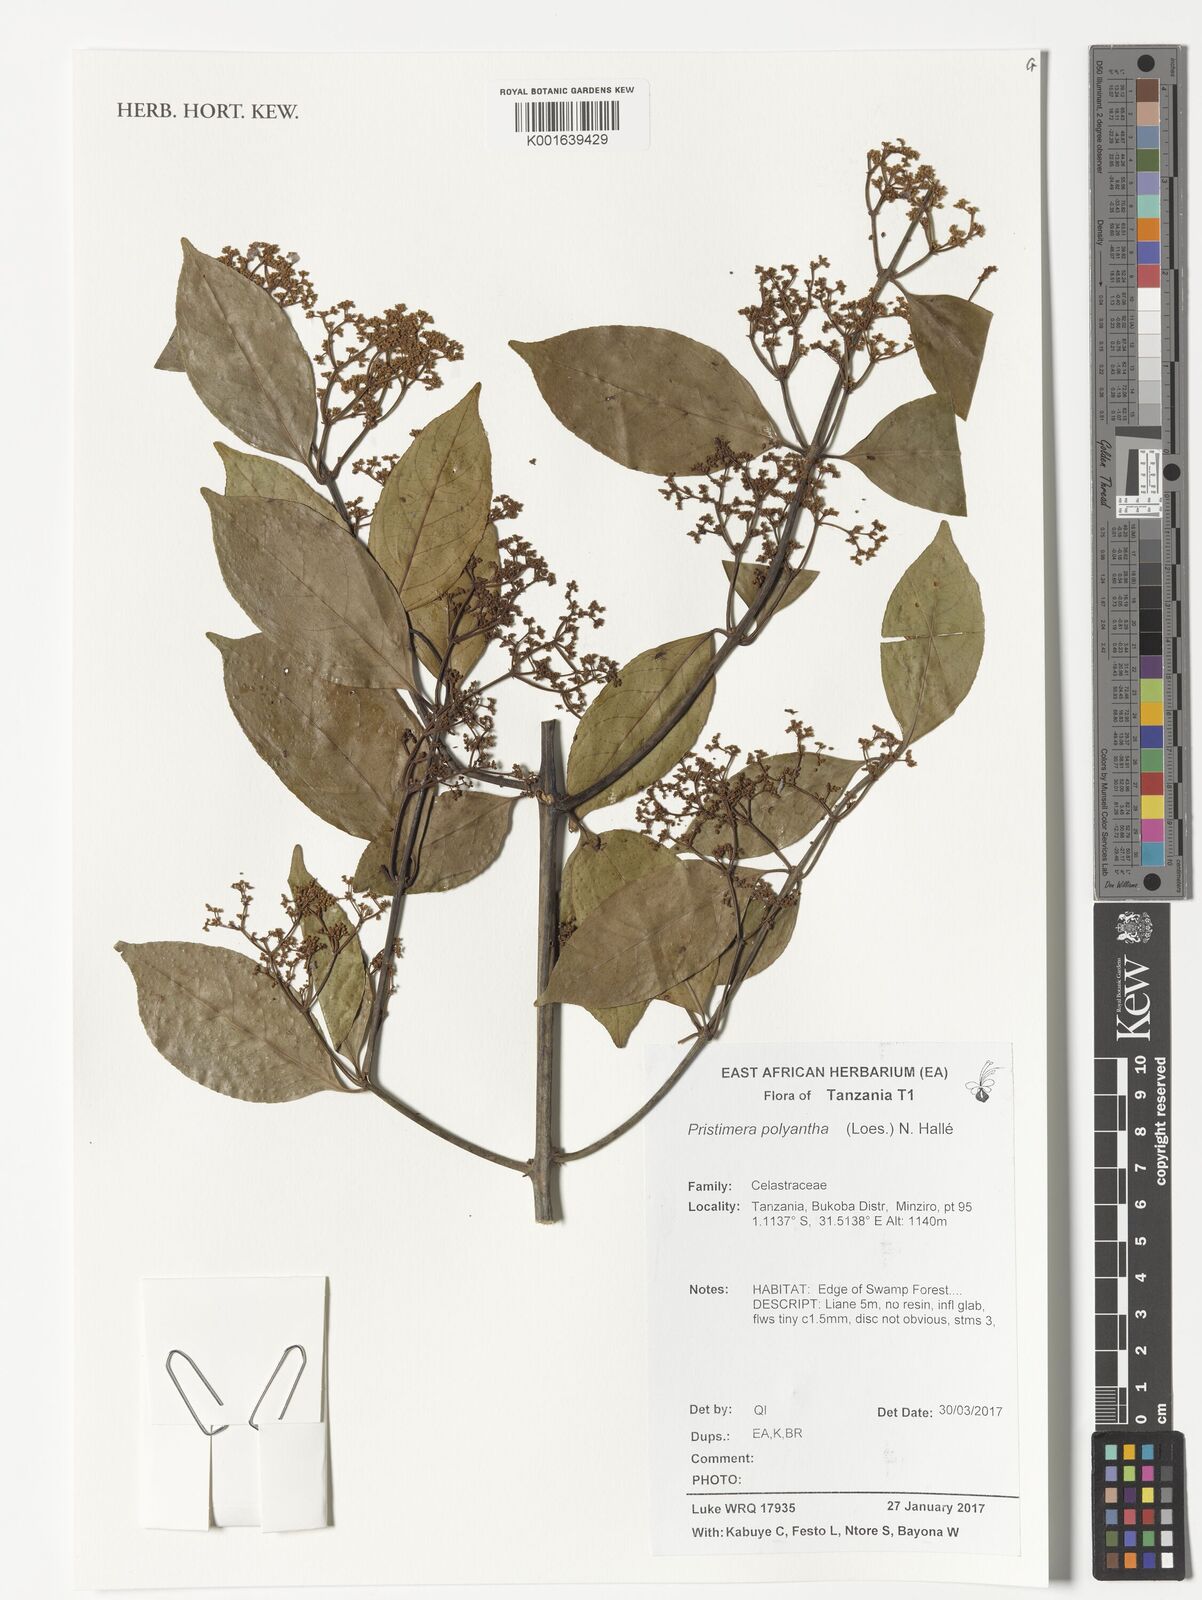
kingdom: Plantae
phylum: Tracheophyta
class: Magnoliopsida
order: Celastrales
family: Celastraceae
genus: Pristimera
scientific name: Pristimera paniculata
